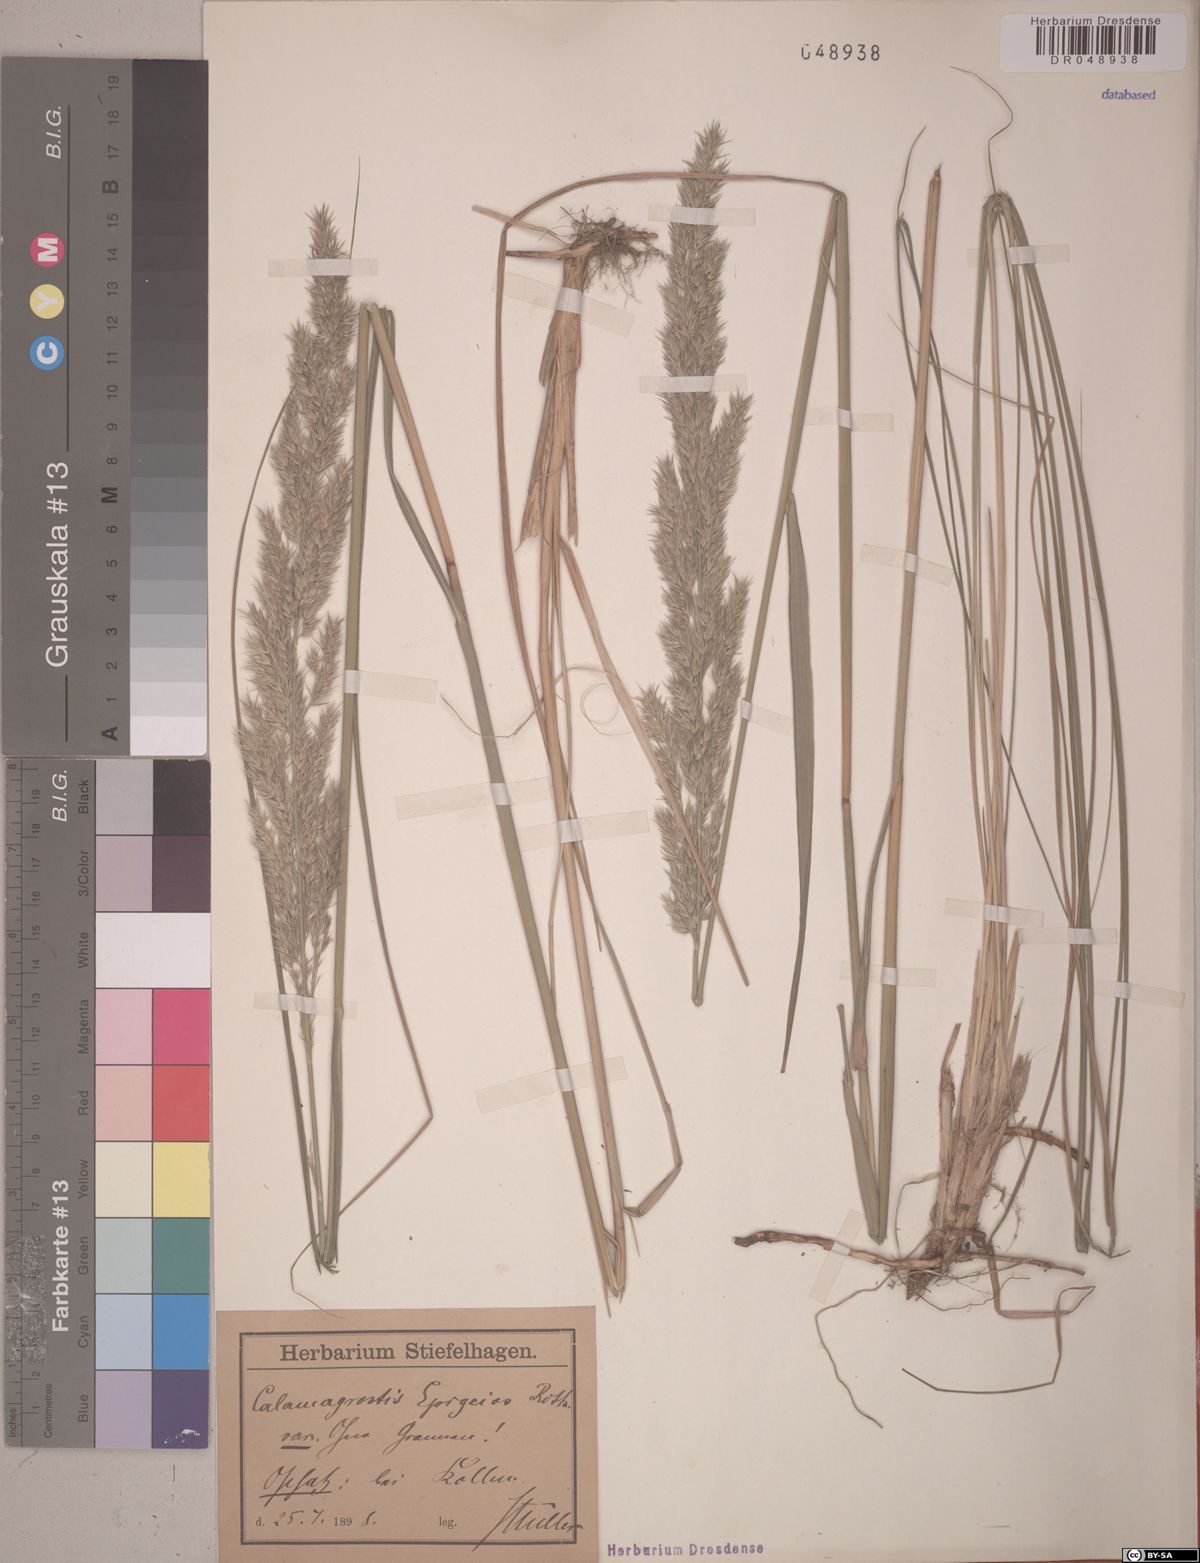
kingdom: Plantae
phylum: Tracheophyta
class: Liliopsida
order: Poales
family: Poaceae
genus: Calamagrostis
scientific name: Calamagrostis epigejos
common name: Wood small-reed
